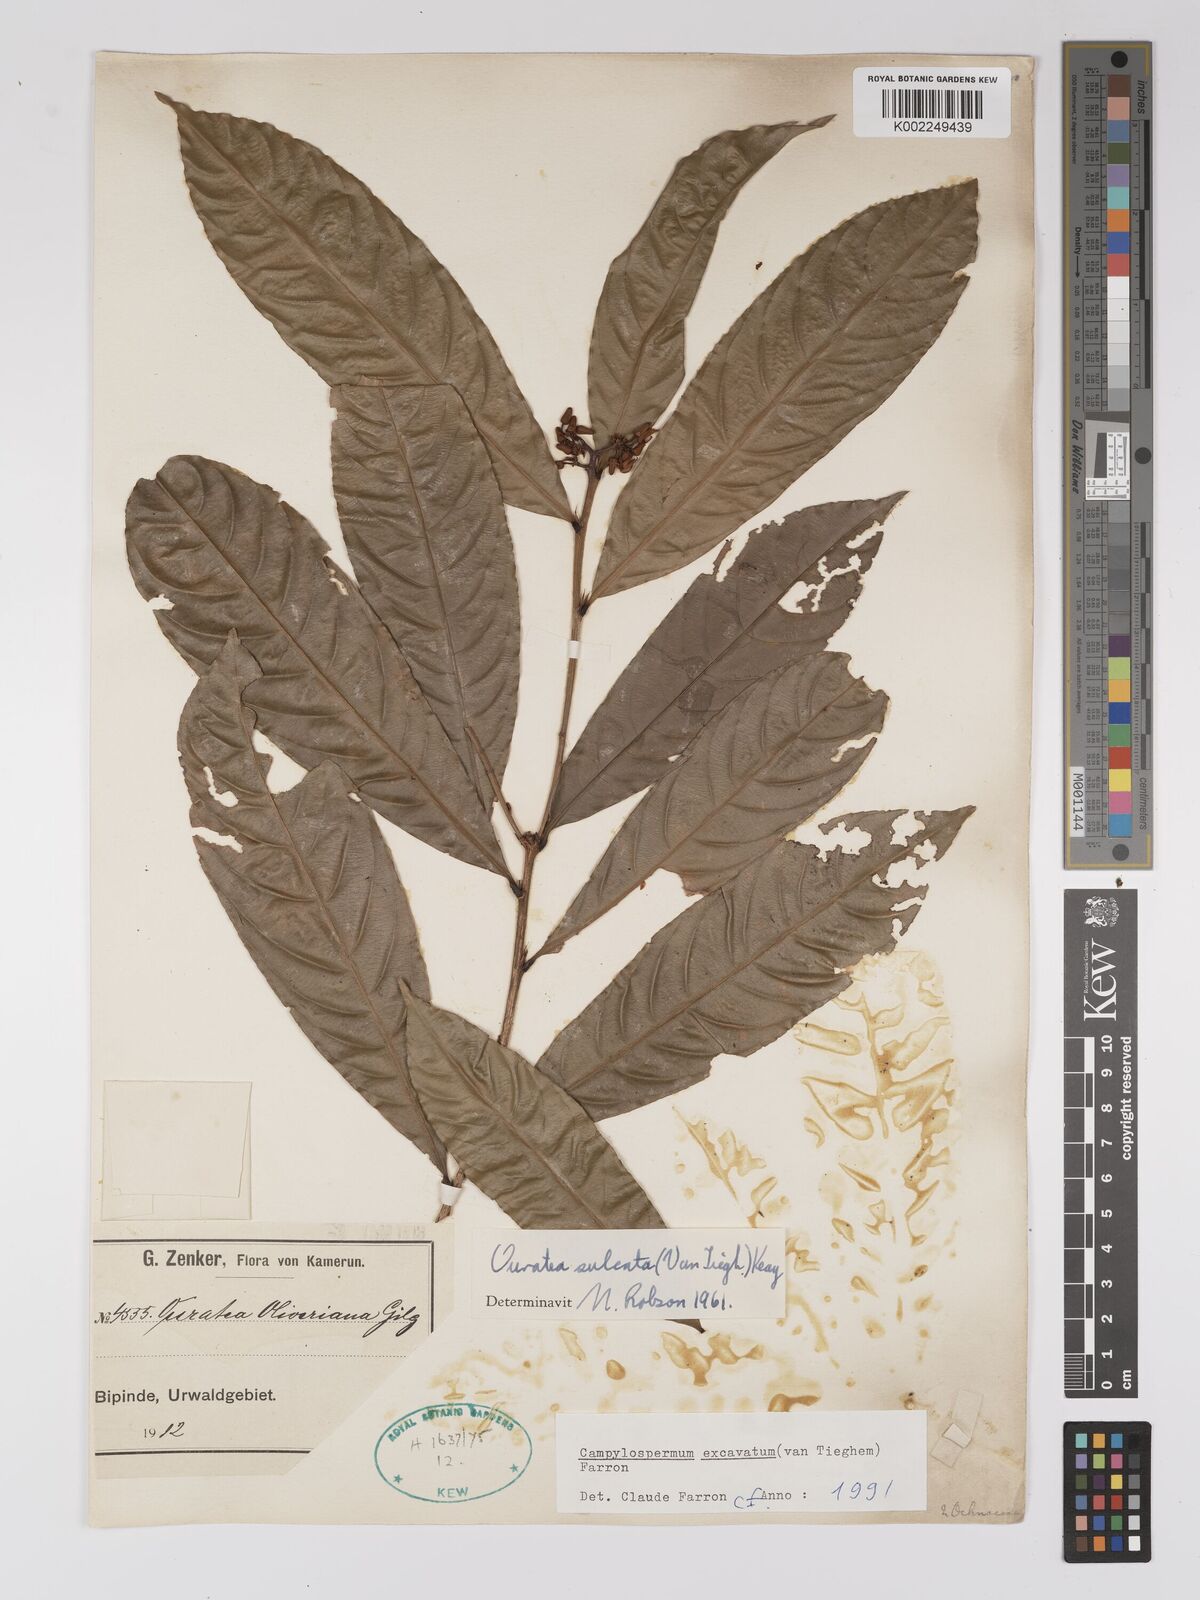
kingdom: Plantae
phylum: Tracheophyta
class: Magnoliopsida
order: Malpighiales
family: Ochnaceae
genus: Campylospermum
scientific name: Campylospermum excavatum
